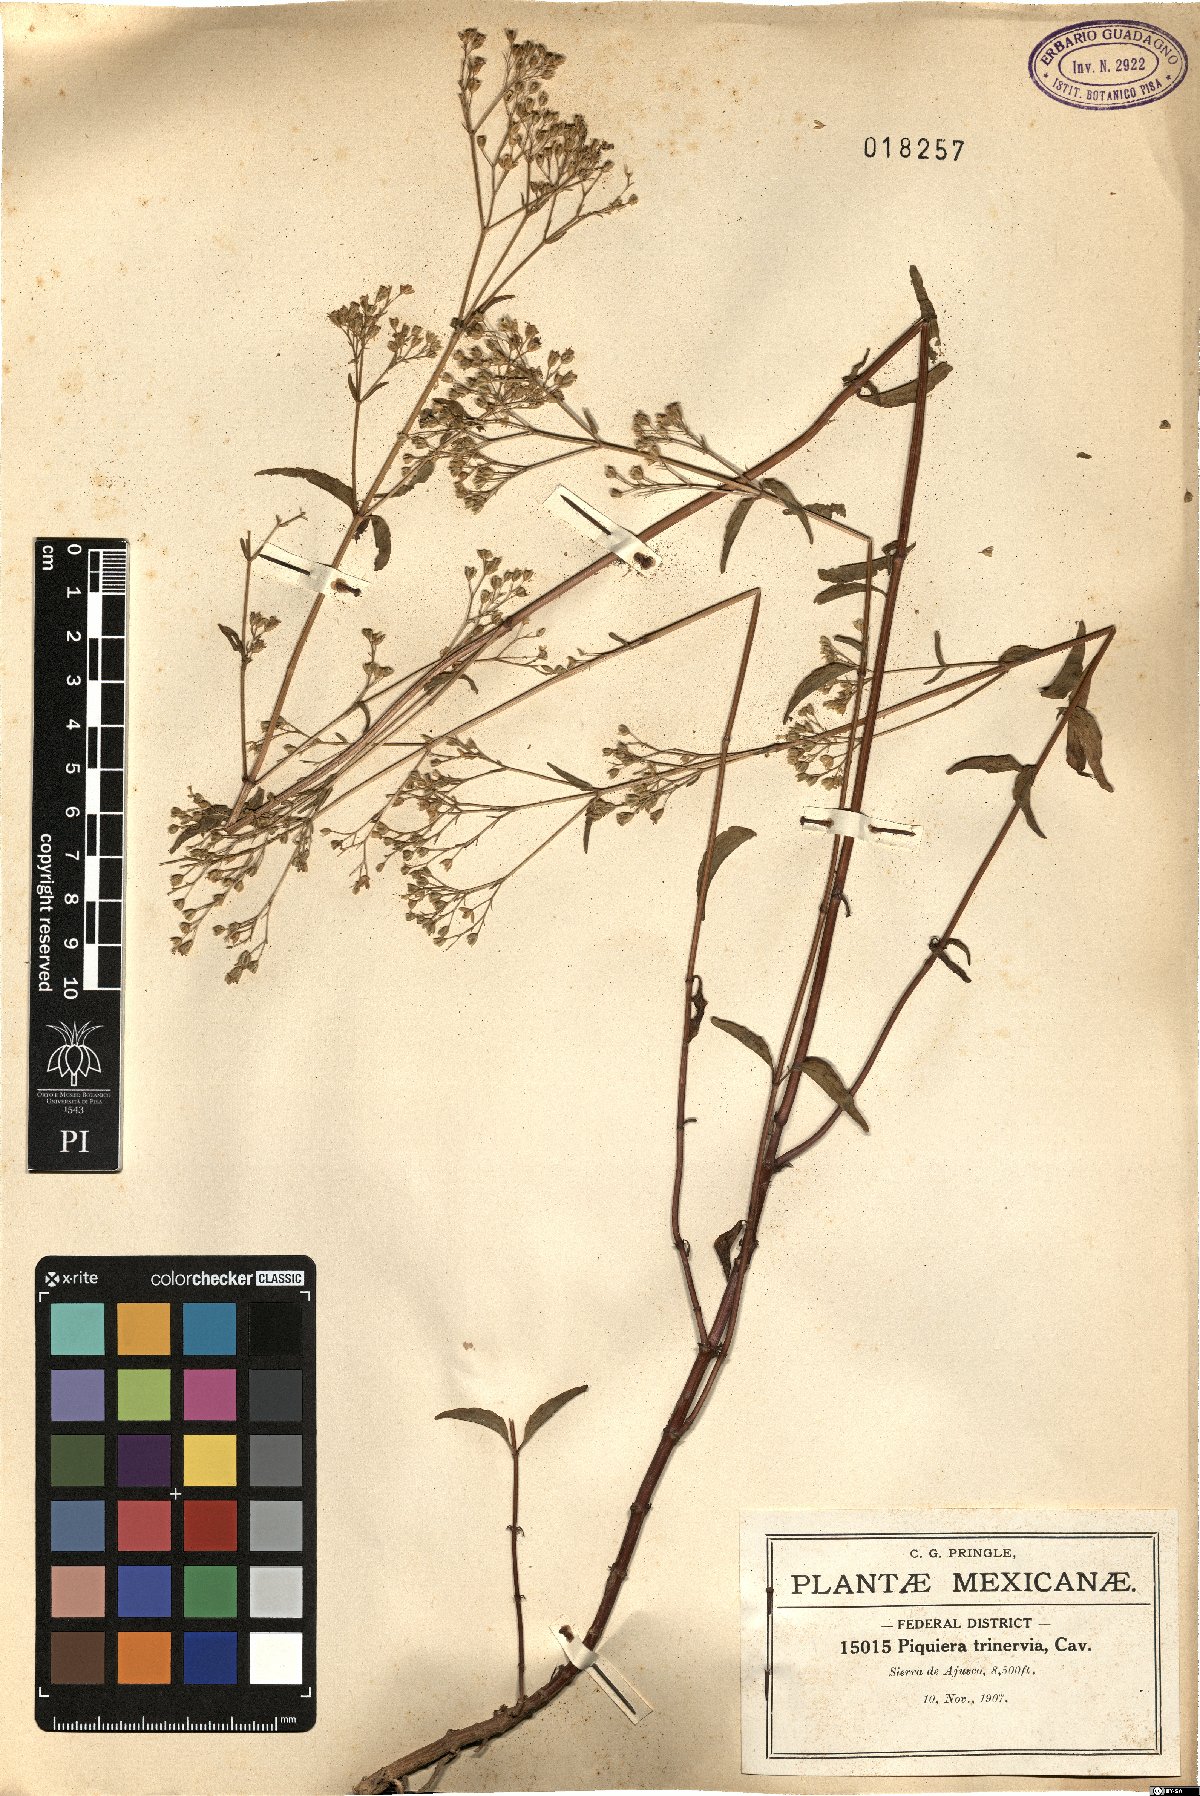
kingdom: Plantae
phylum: Tracheophyta
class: Magnoliopsida
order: Asterales
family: Asteraceae
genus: Piqueria
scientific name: Piqueria trinervia
